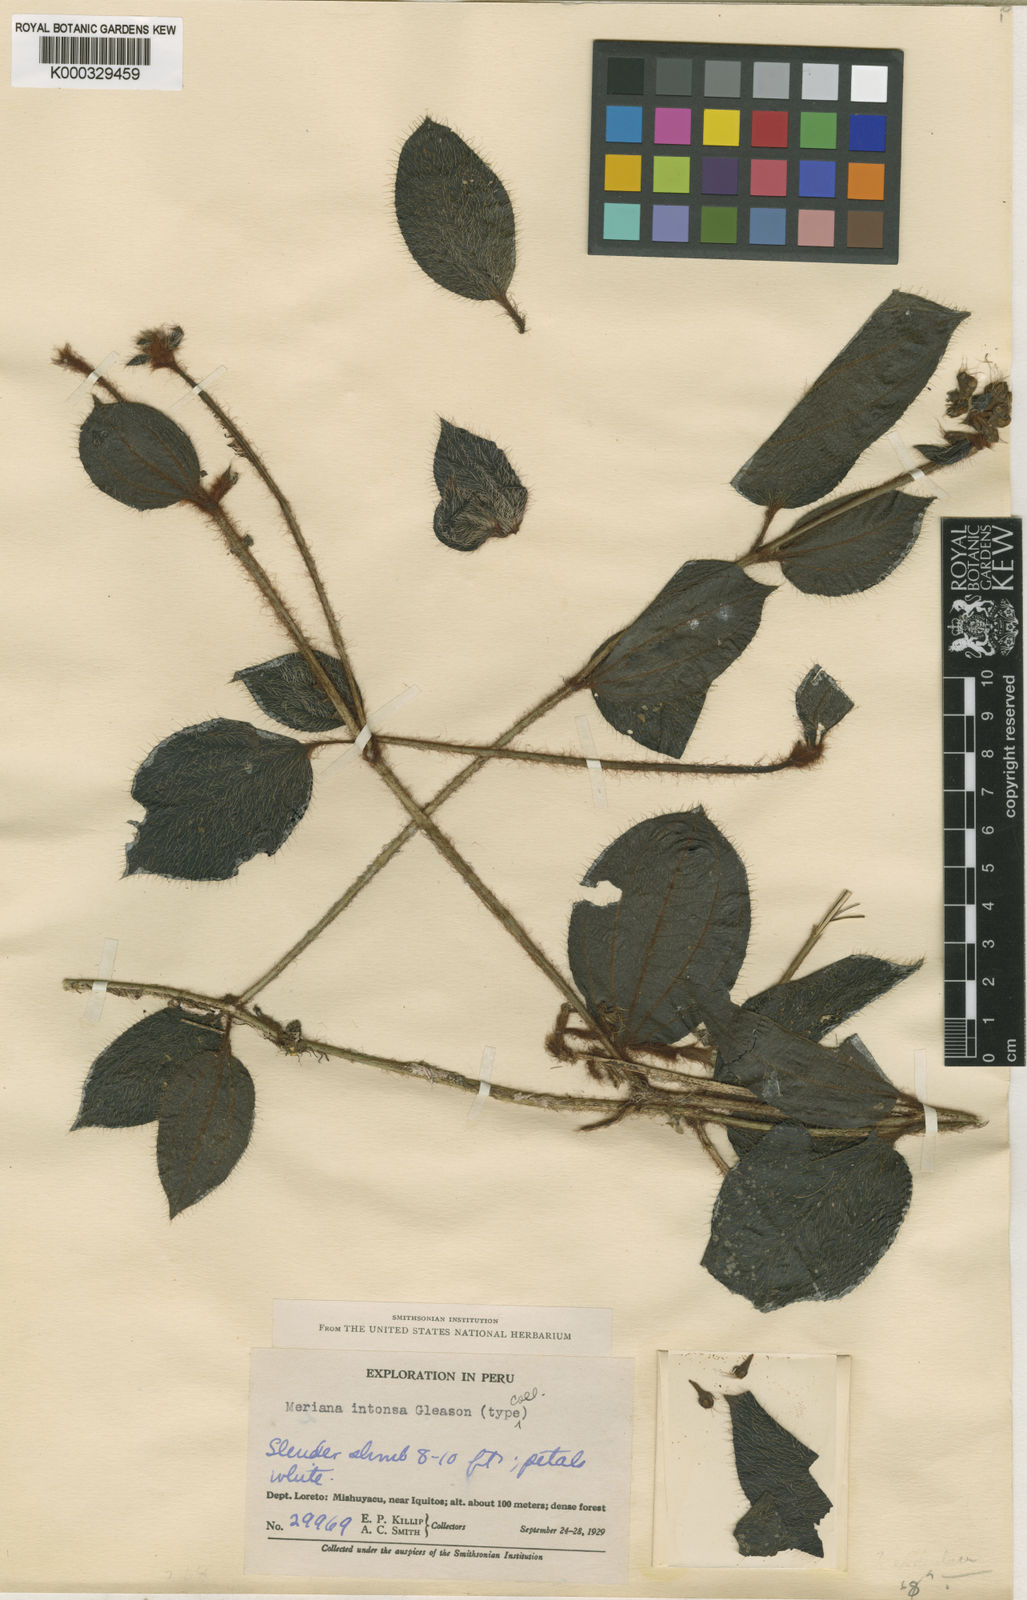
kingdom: Plantae
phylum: Tracheophyta
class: Magnoliopsida
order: Myrtales
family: Melastomataceae
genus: Adelobotrys
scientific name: Adelobotrys intonsus
